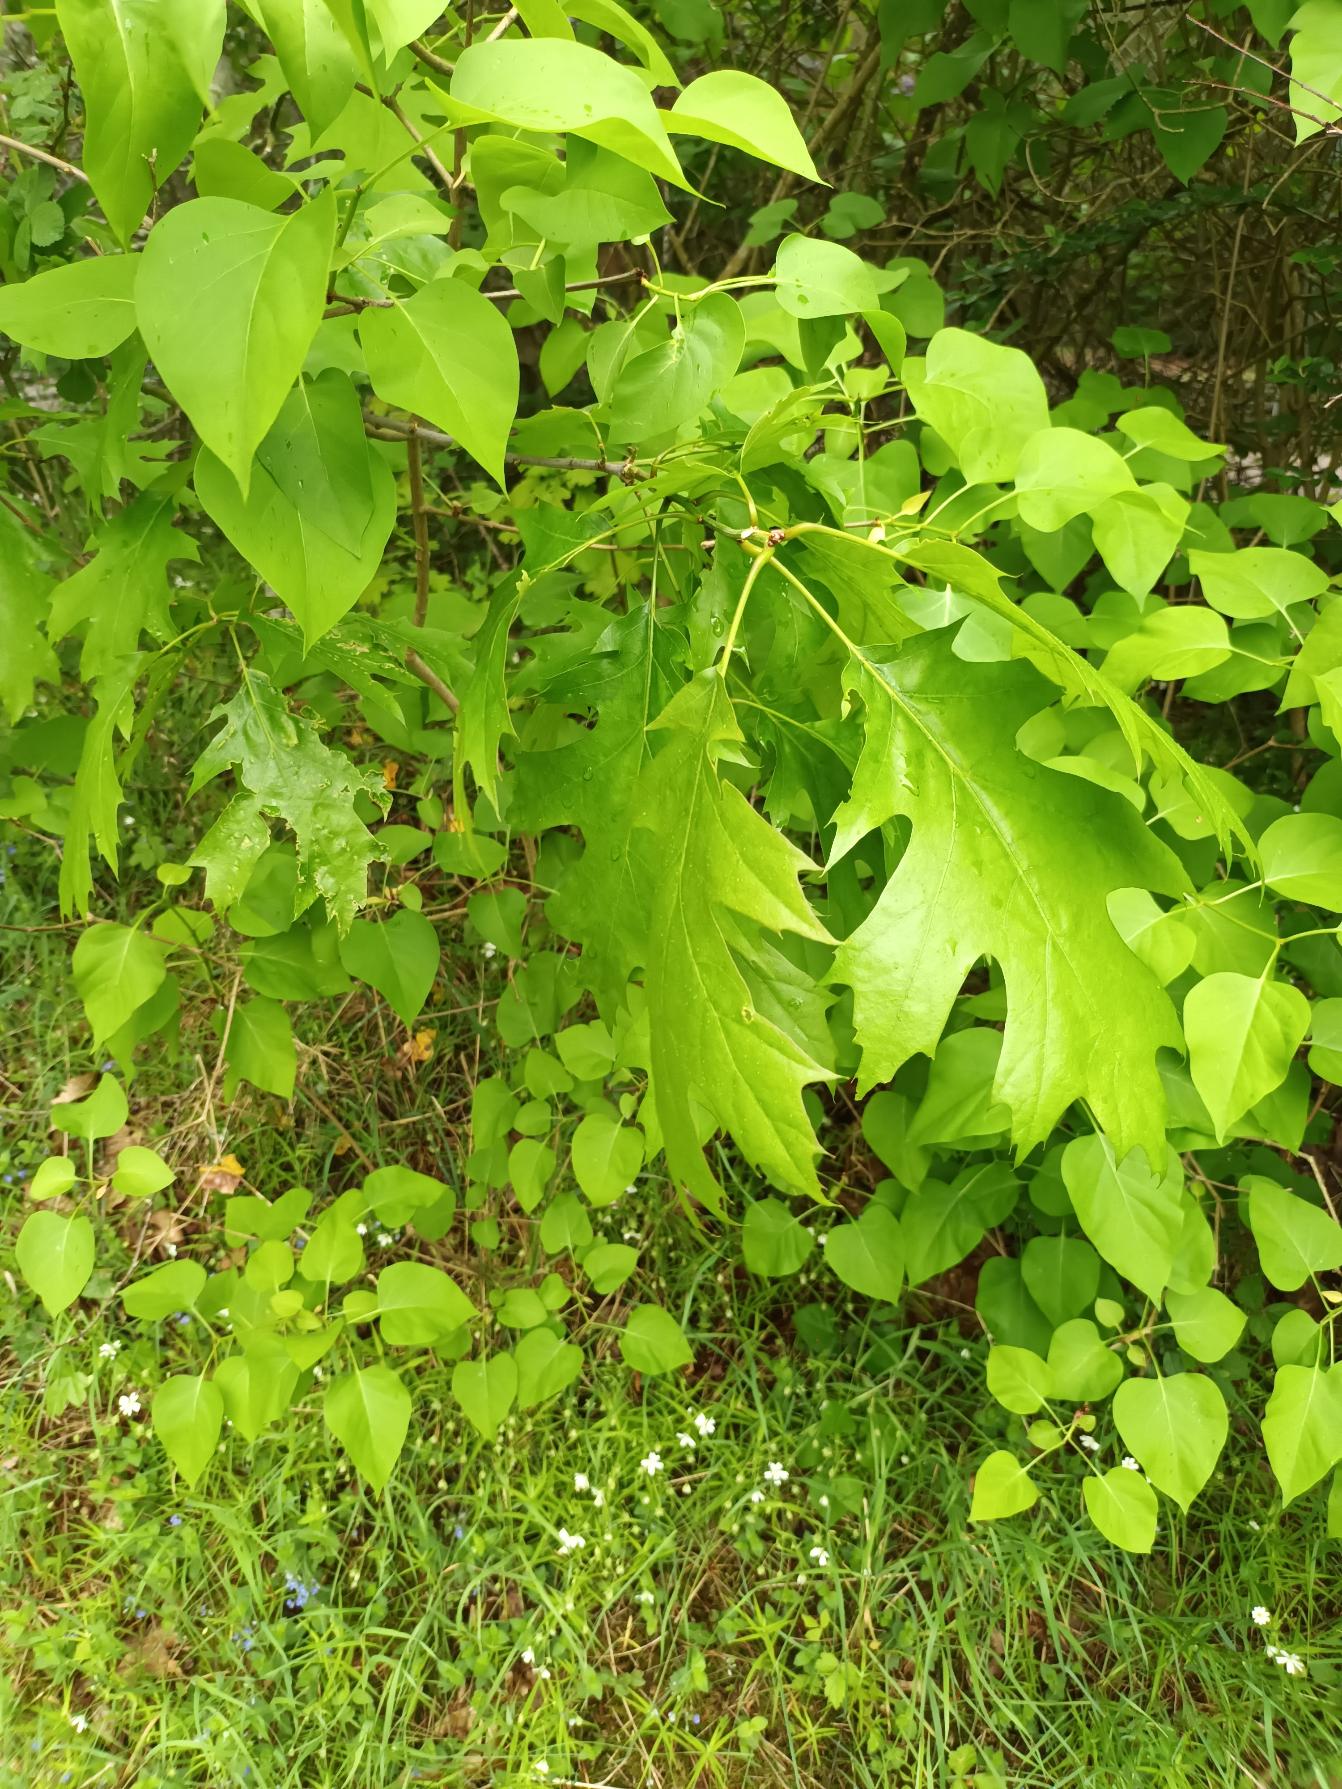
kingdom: Plantae
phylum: Tracheophyta
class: Magnoliopsida
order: Fagales
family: Fagaceae
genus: Quercus
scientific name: Quercus rubra
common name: Rød-eg
